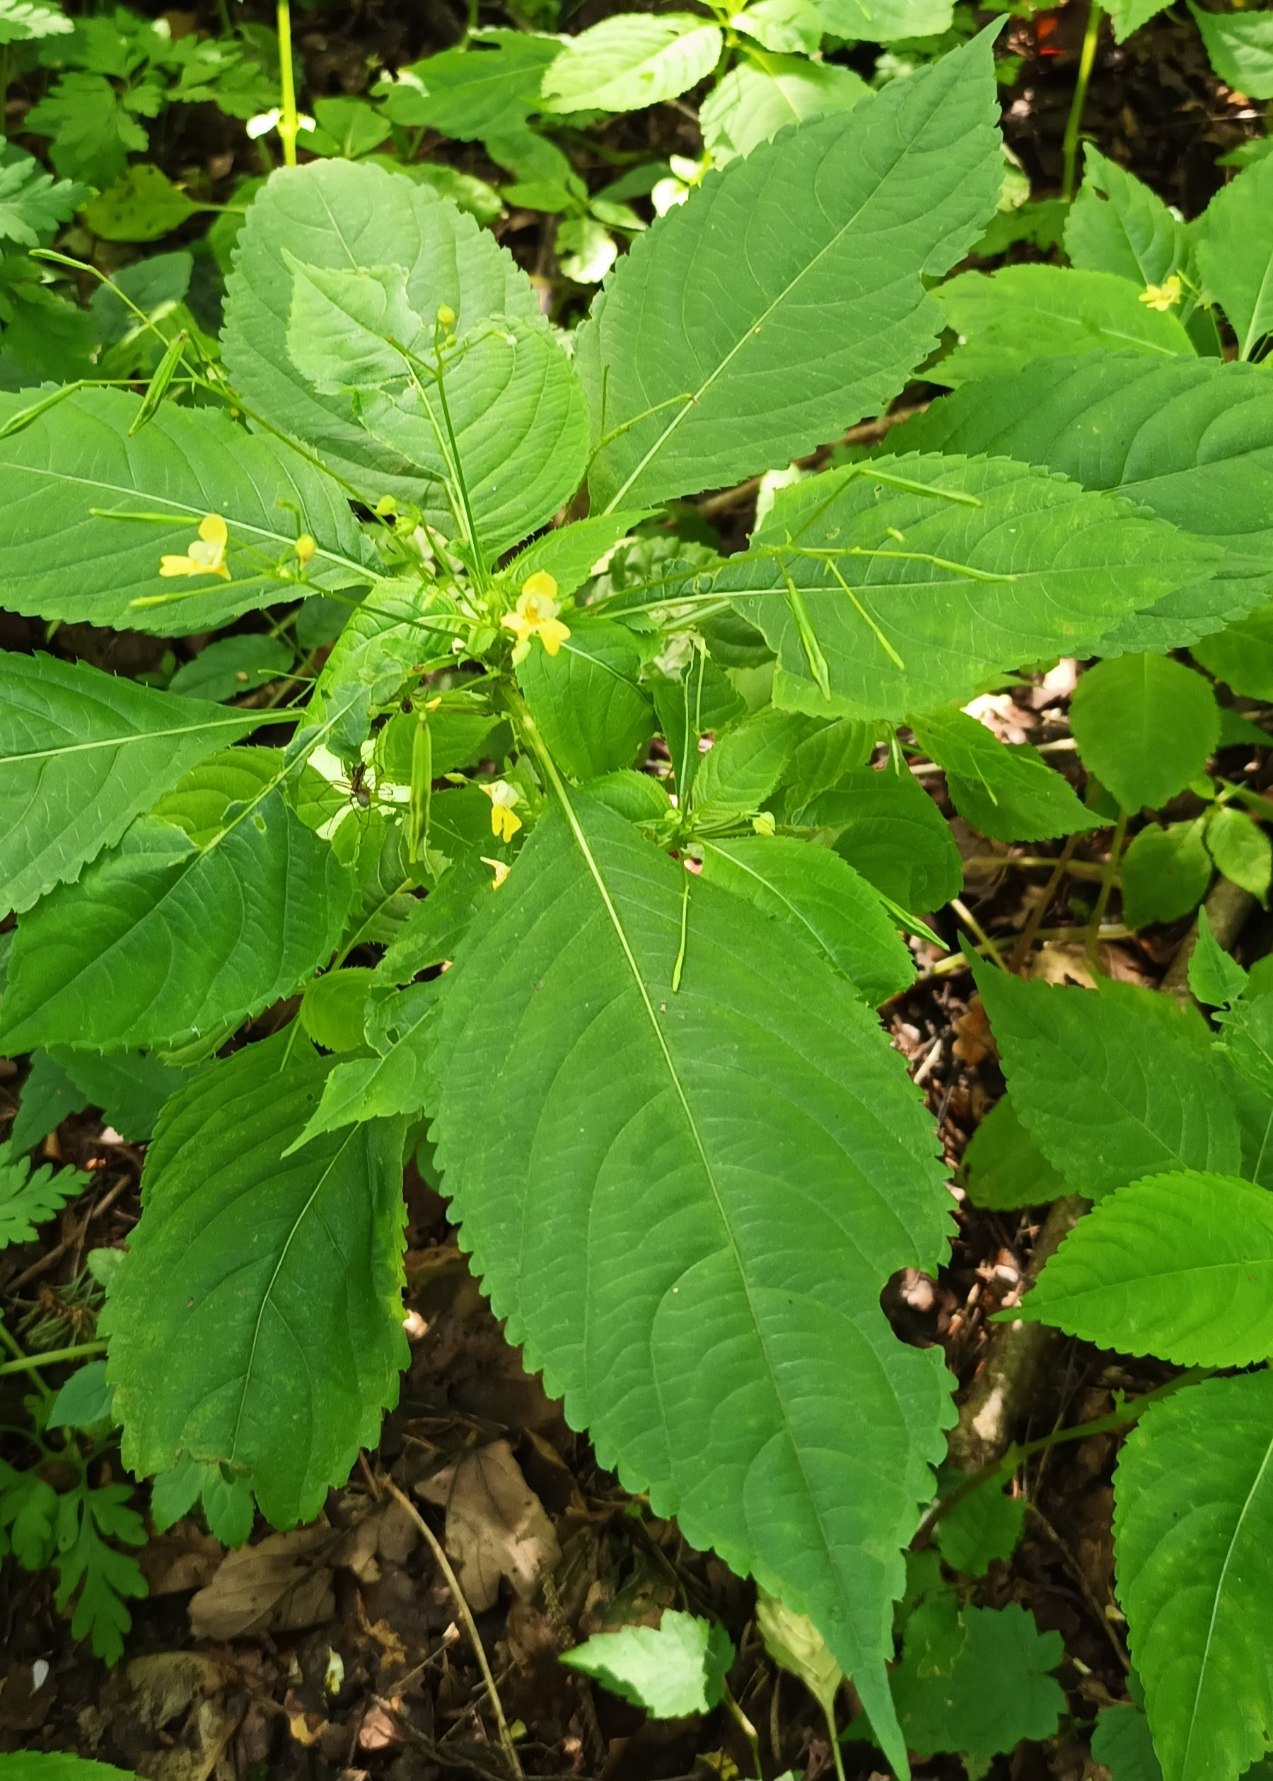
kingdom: Plantae
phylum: Tracheophyta
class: Magnoliopsida
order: Ericales
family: Balsaminaceae
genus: Impatiens
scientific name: Impatiens parviflora
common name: Småblomstret balsamin
